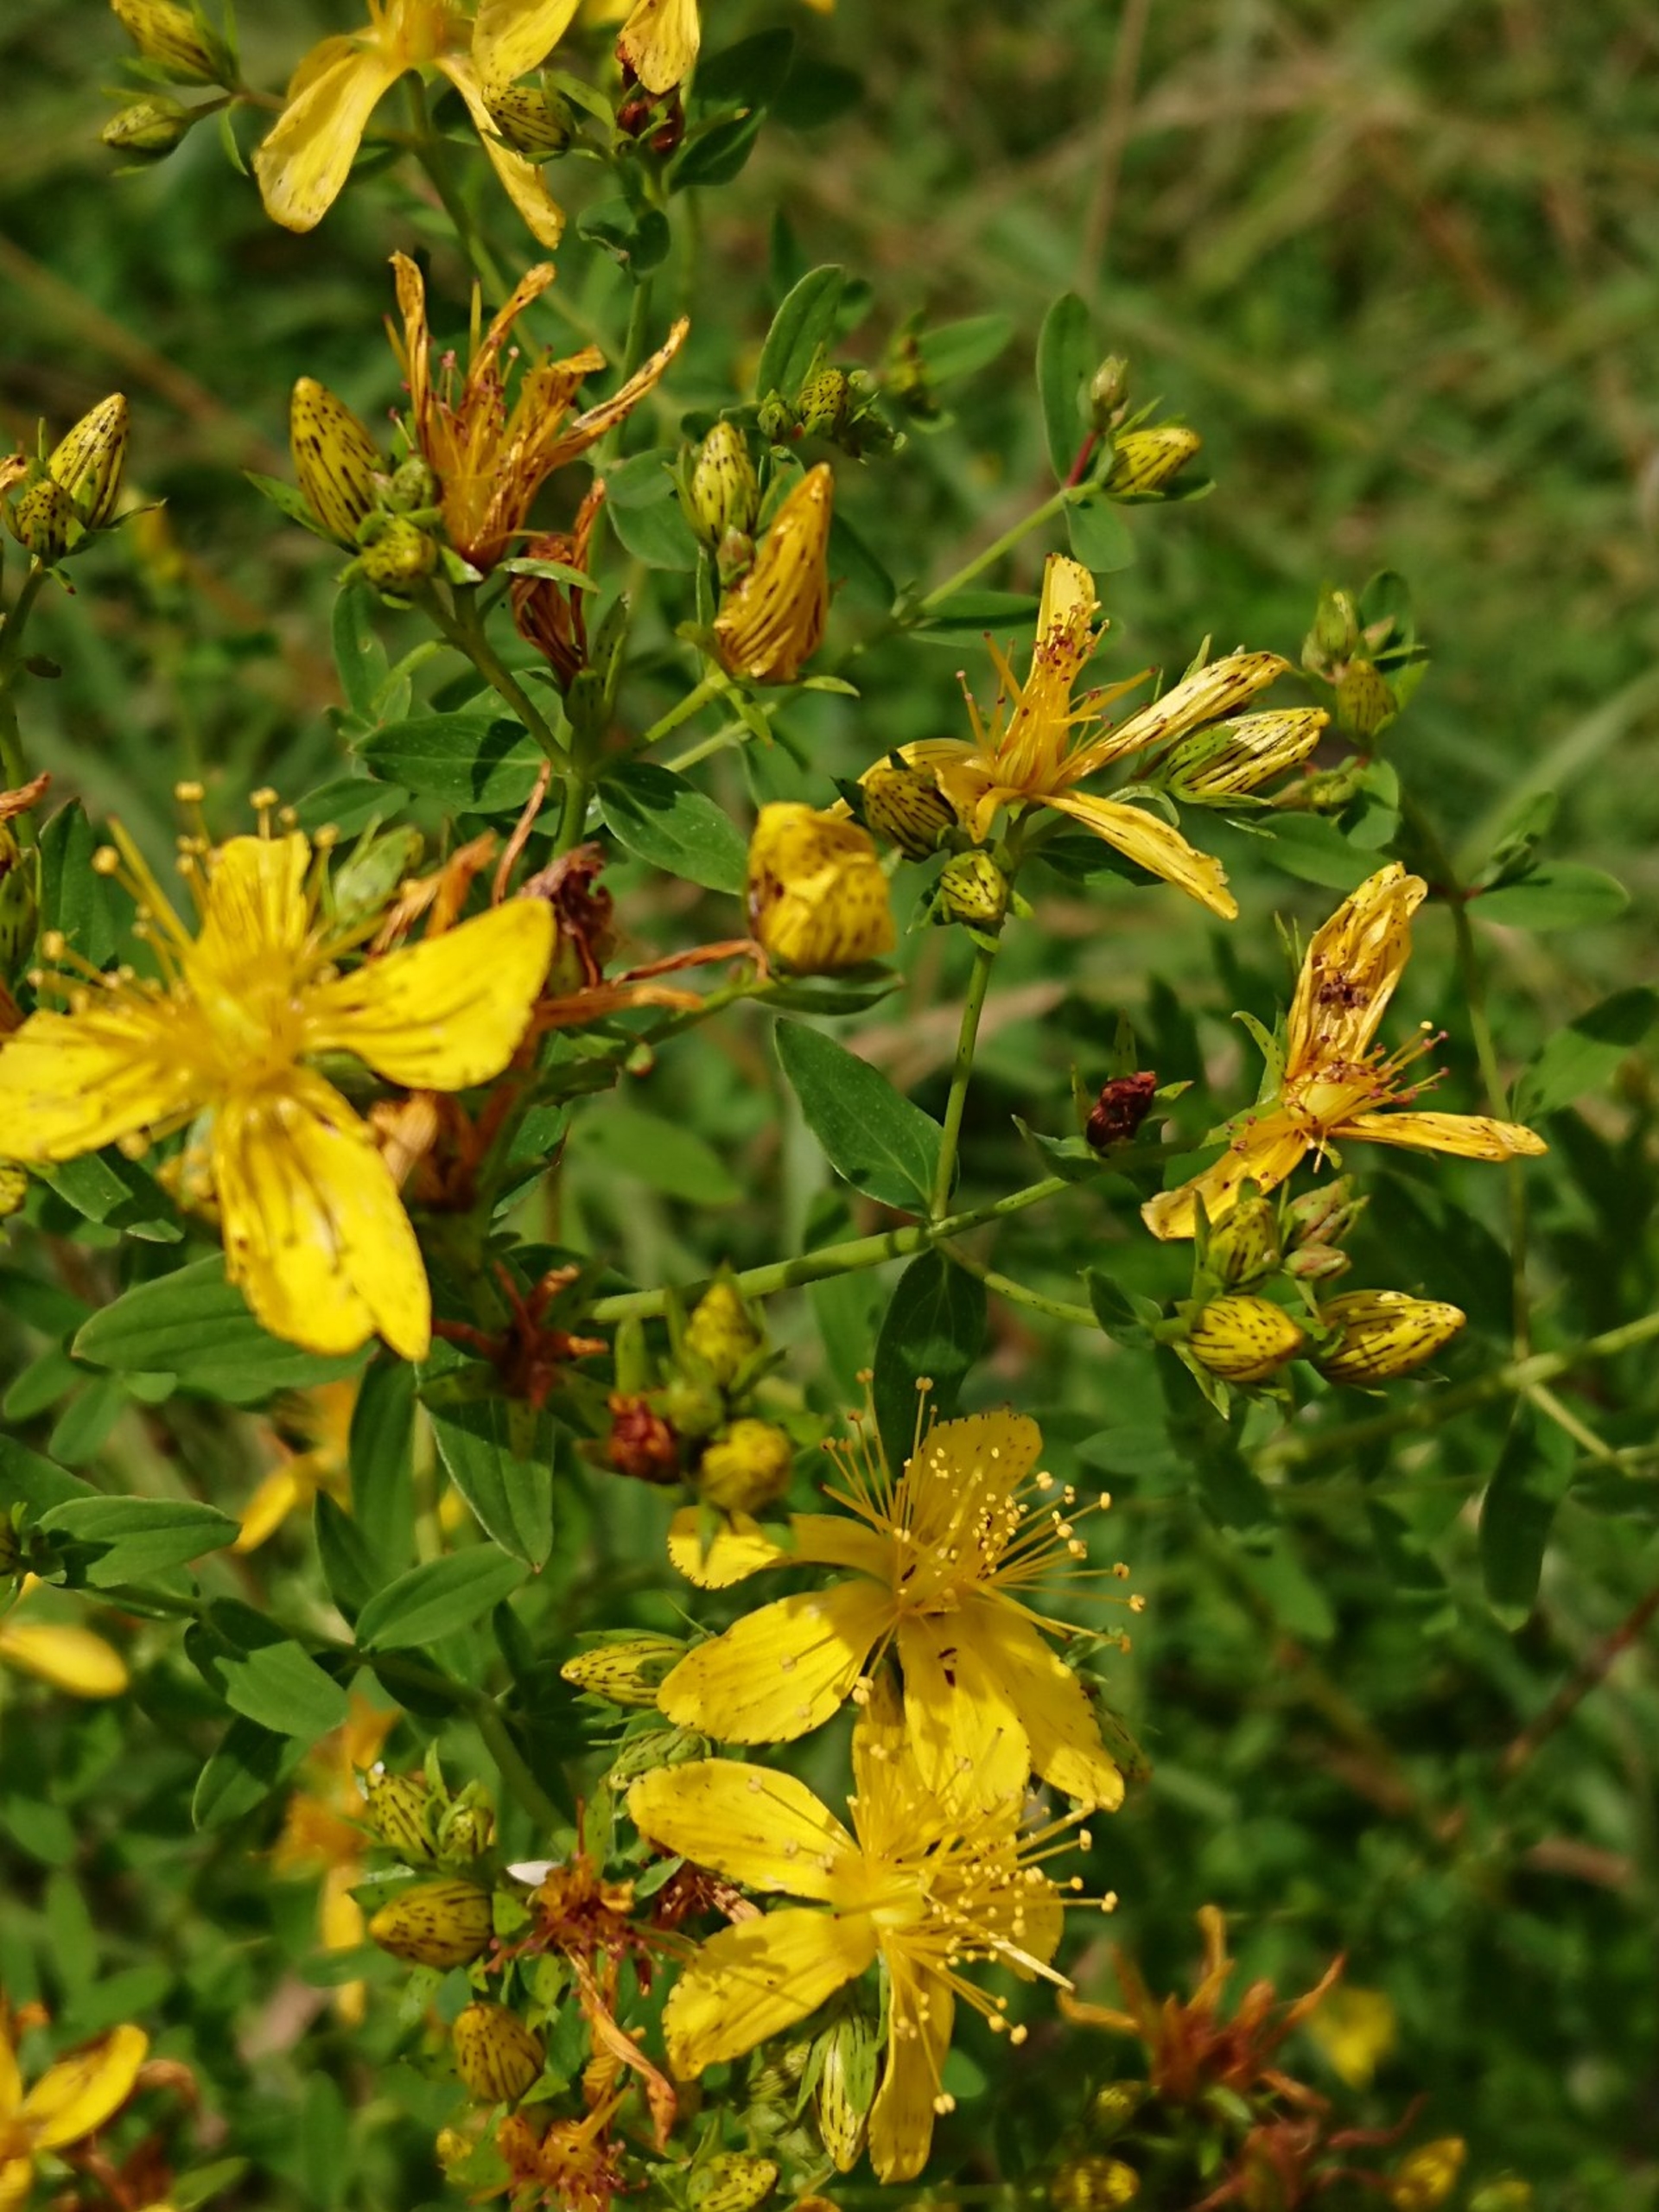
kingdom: Plantae
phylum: Tracheophyta
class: Magnoliopsida
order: Malpighiales
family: Hypericaceae
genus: Hypericum
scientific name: Hypericum perforatum
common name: Prikbladet perikon
